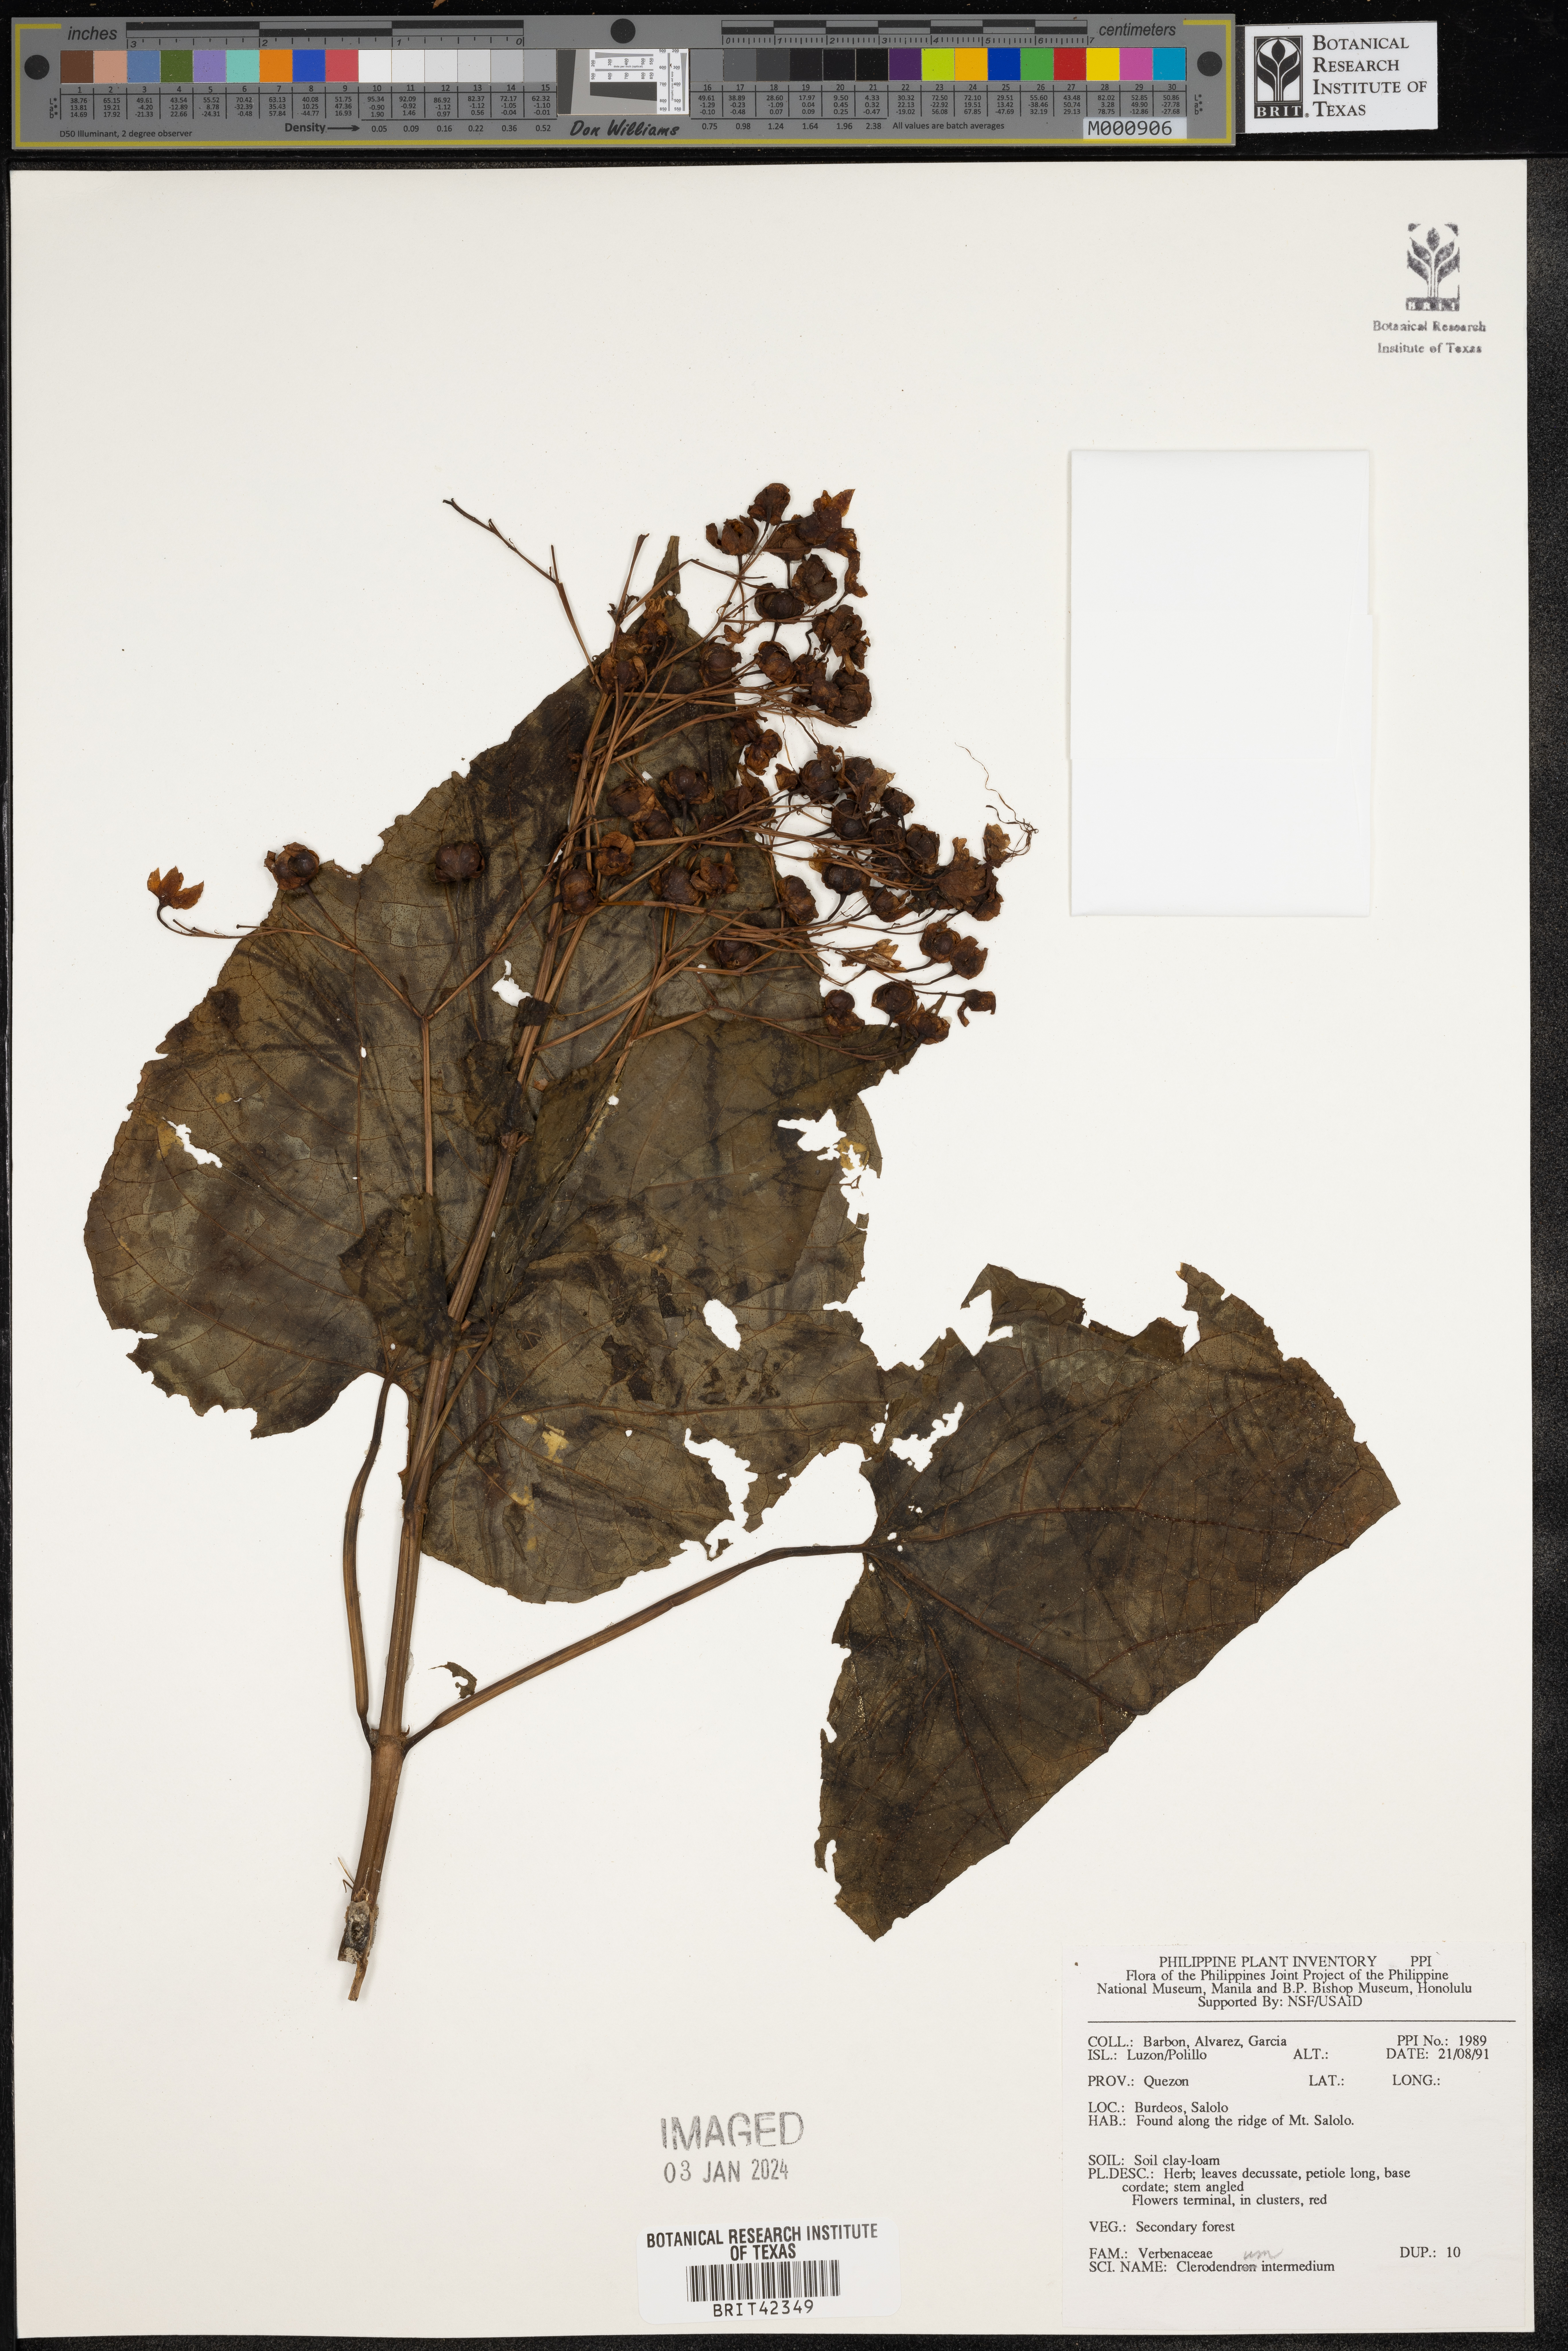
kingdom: Plantae
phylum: Tracheophyta
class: Magnoliopsida
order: Lamiales
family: Lamiaceae
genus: Clerodendrum
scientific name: Clerodendrum intermedium
